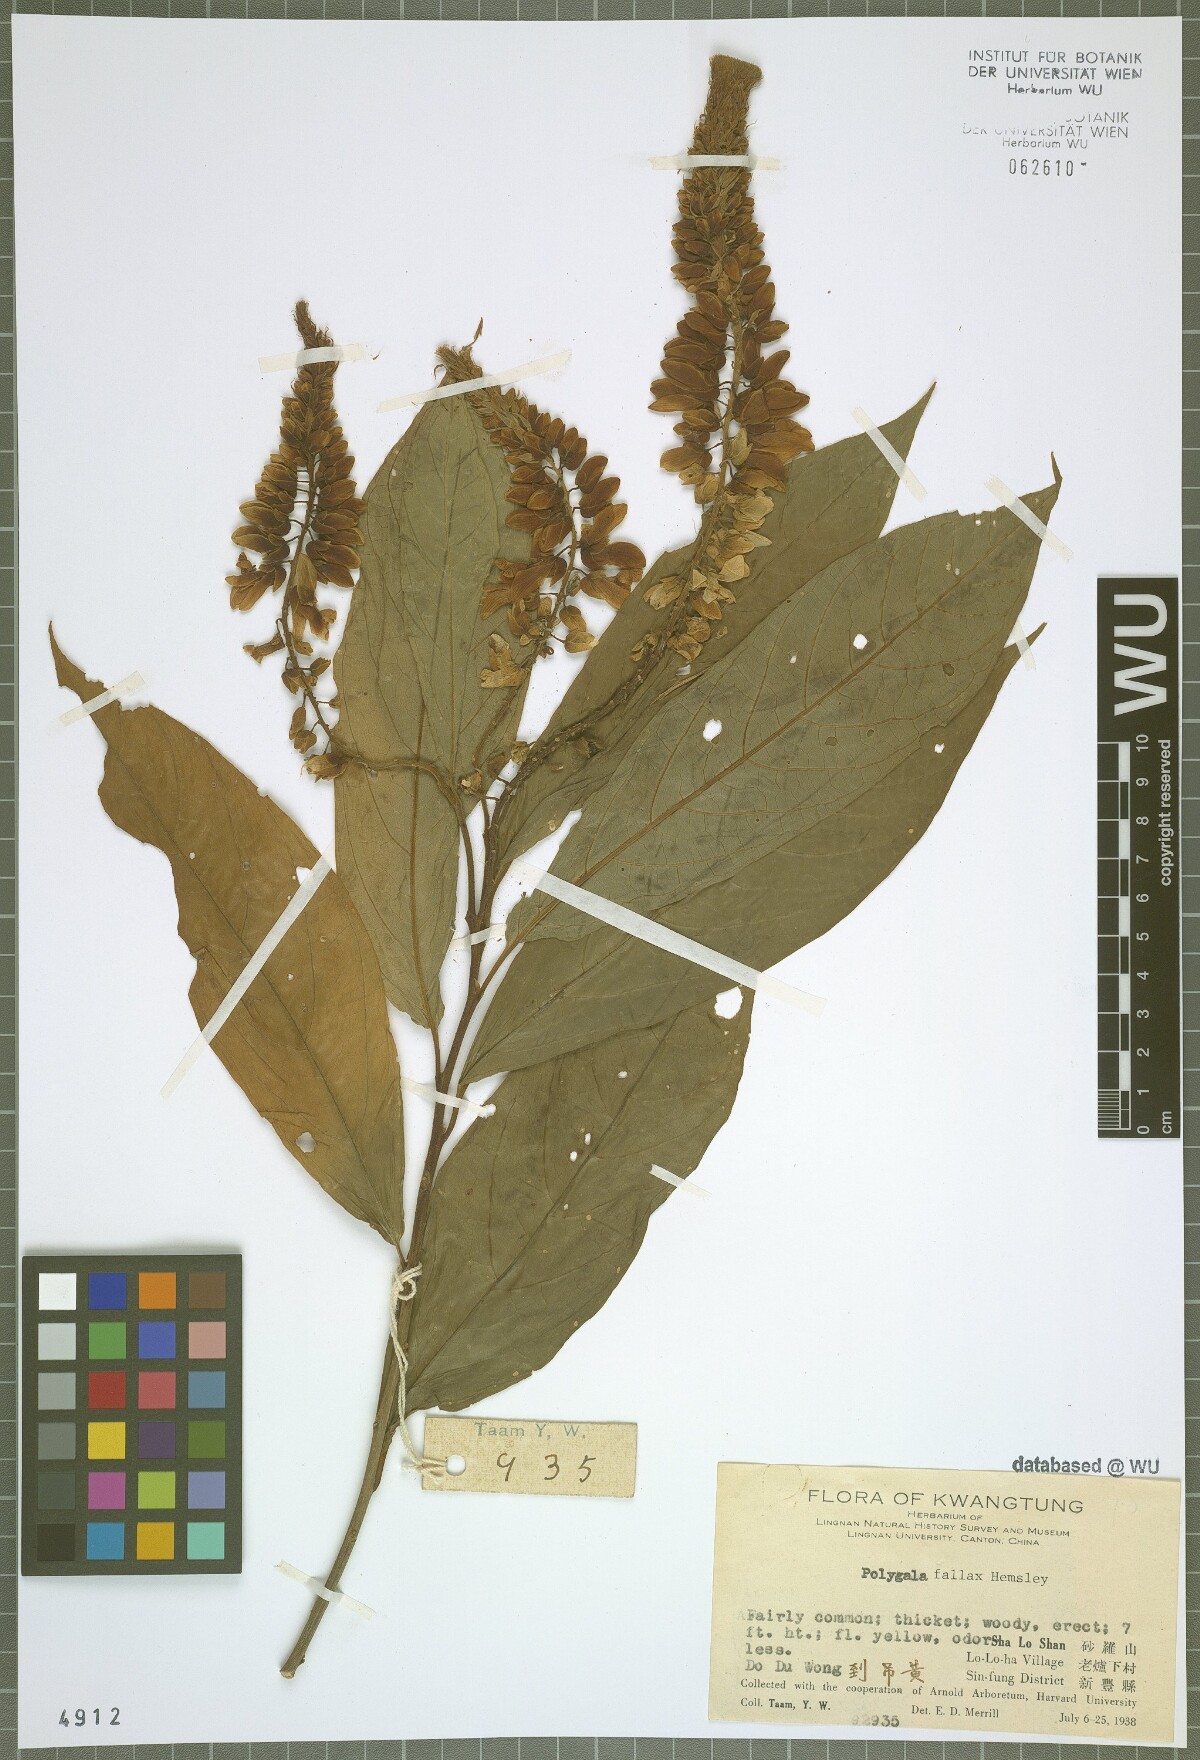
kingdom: Plantae
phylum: Tracheophyta
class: Magnoliopsida
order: Fabales
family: Polygalaceae
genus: Polygala
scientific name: Polygala forbesii
